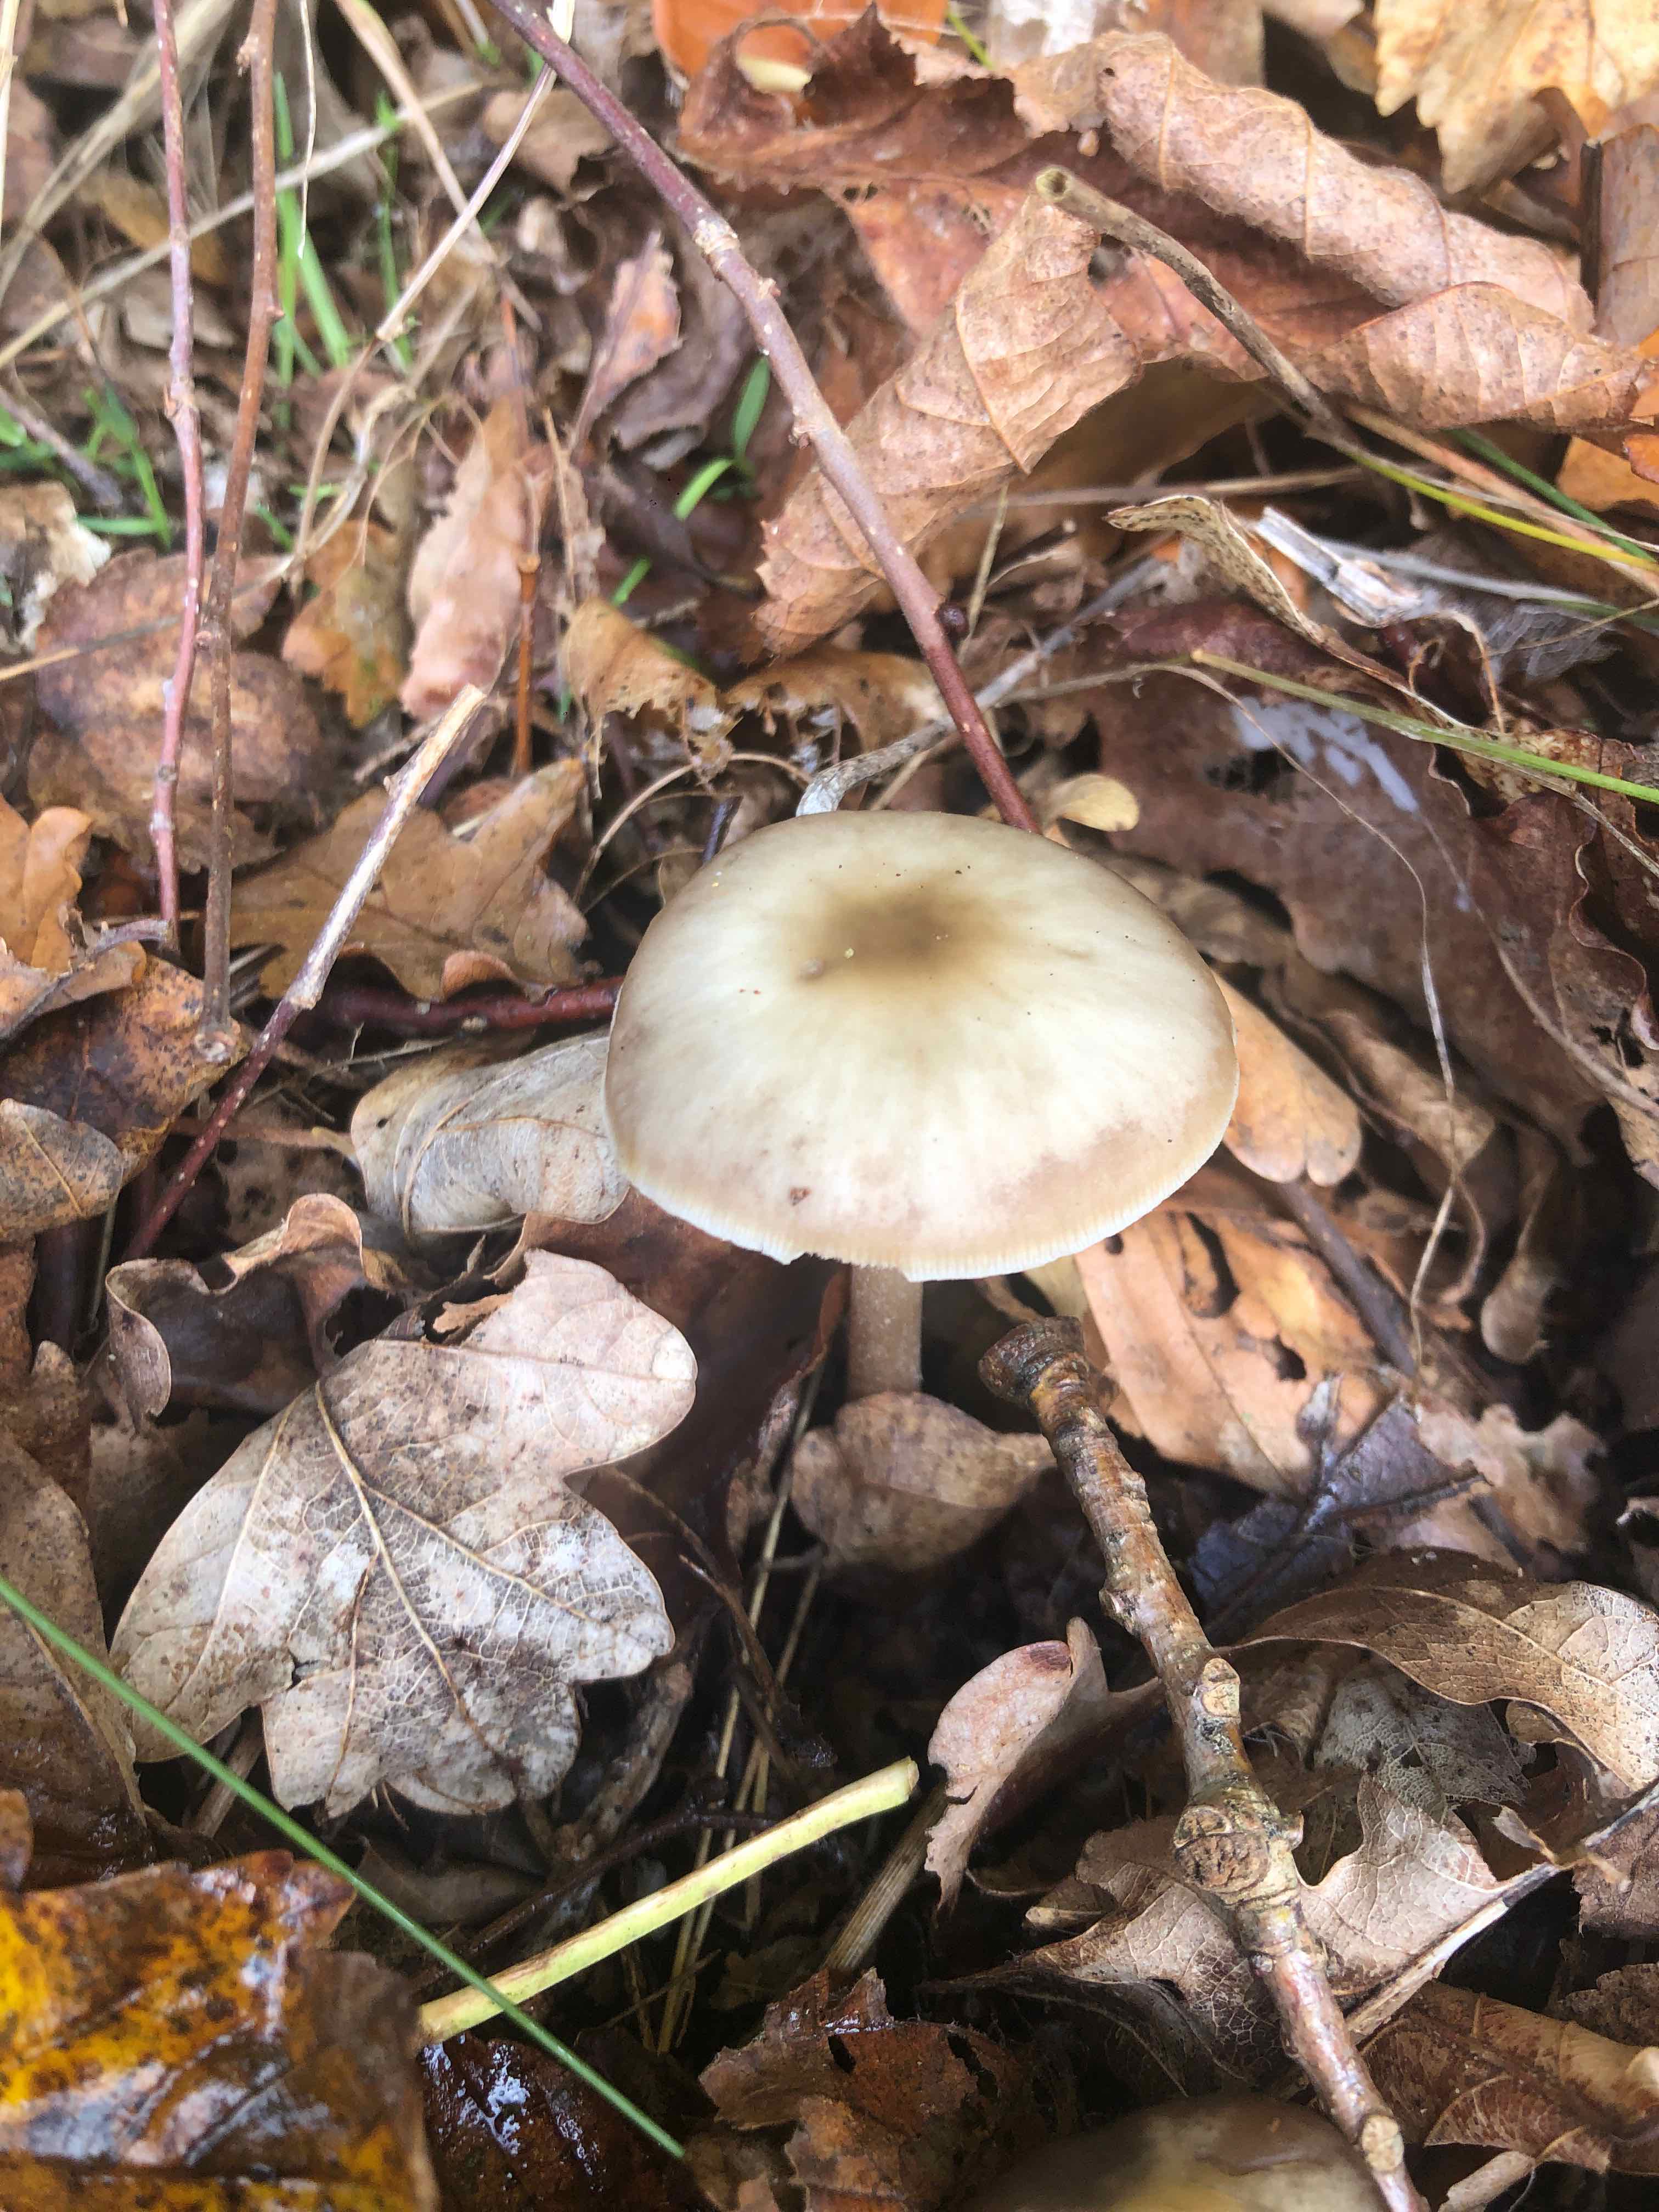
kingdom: Fungi
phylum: Basidiomycota
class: Agaricomycetes
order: Agaricales
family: Omphalotaceae
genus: Rhodocollybia
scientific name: Rhodocollybia asema
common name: horngrå fladhat
